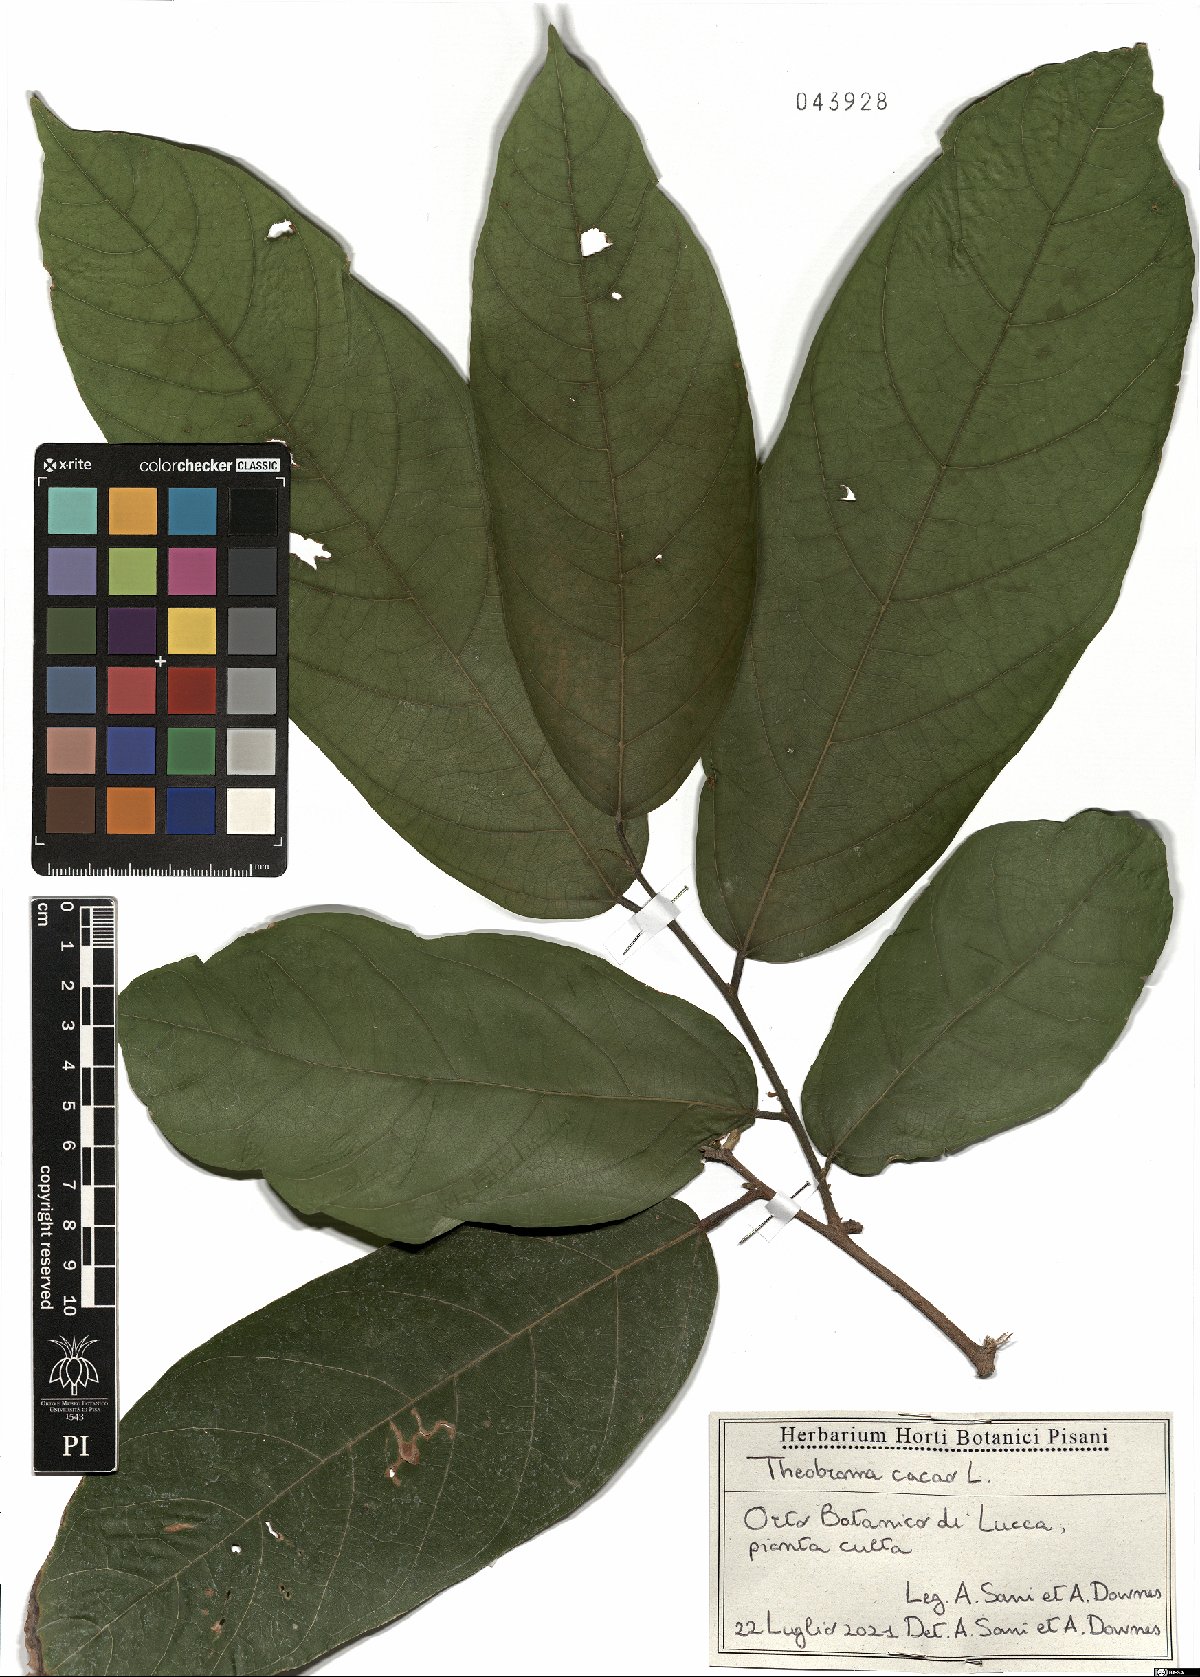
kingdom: Plantae
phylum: Tracheophyta
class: Magnoliopsida
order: Malvales
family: Malvaceae
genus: Theobroma
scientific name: Theobroma cacao
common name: Cocoa
